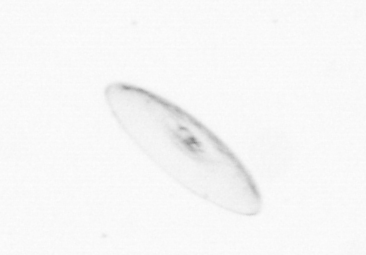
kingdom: Chromista
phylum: Myzozoa
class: Dinophyceae
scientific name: Dinophyceae
